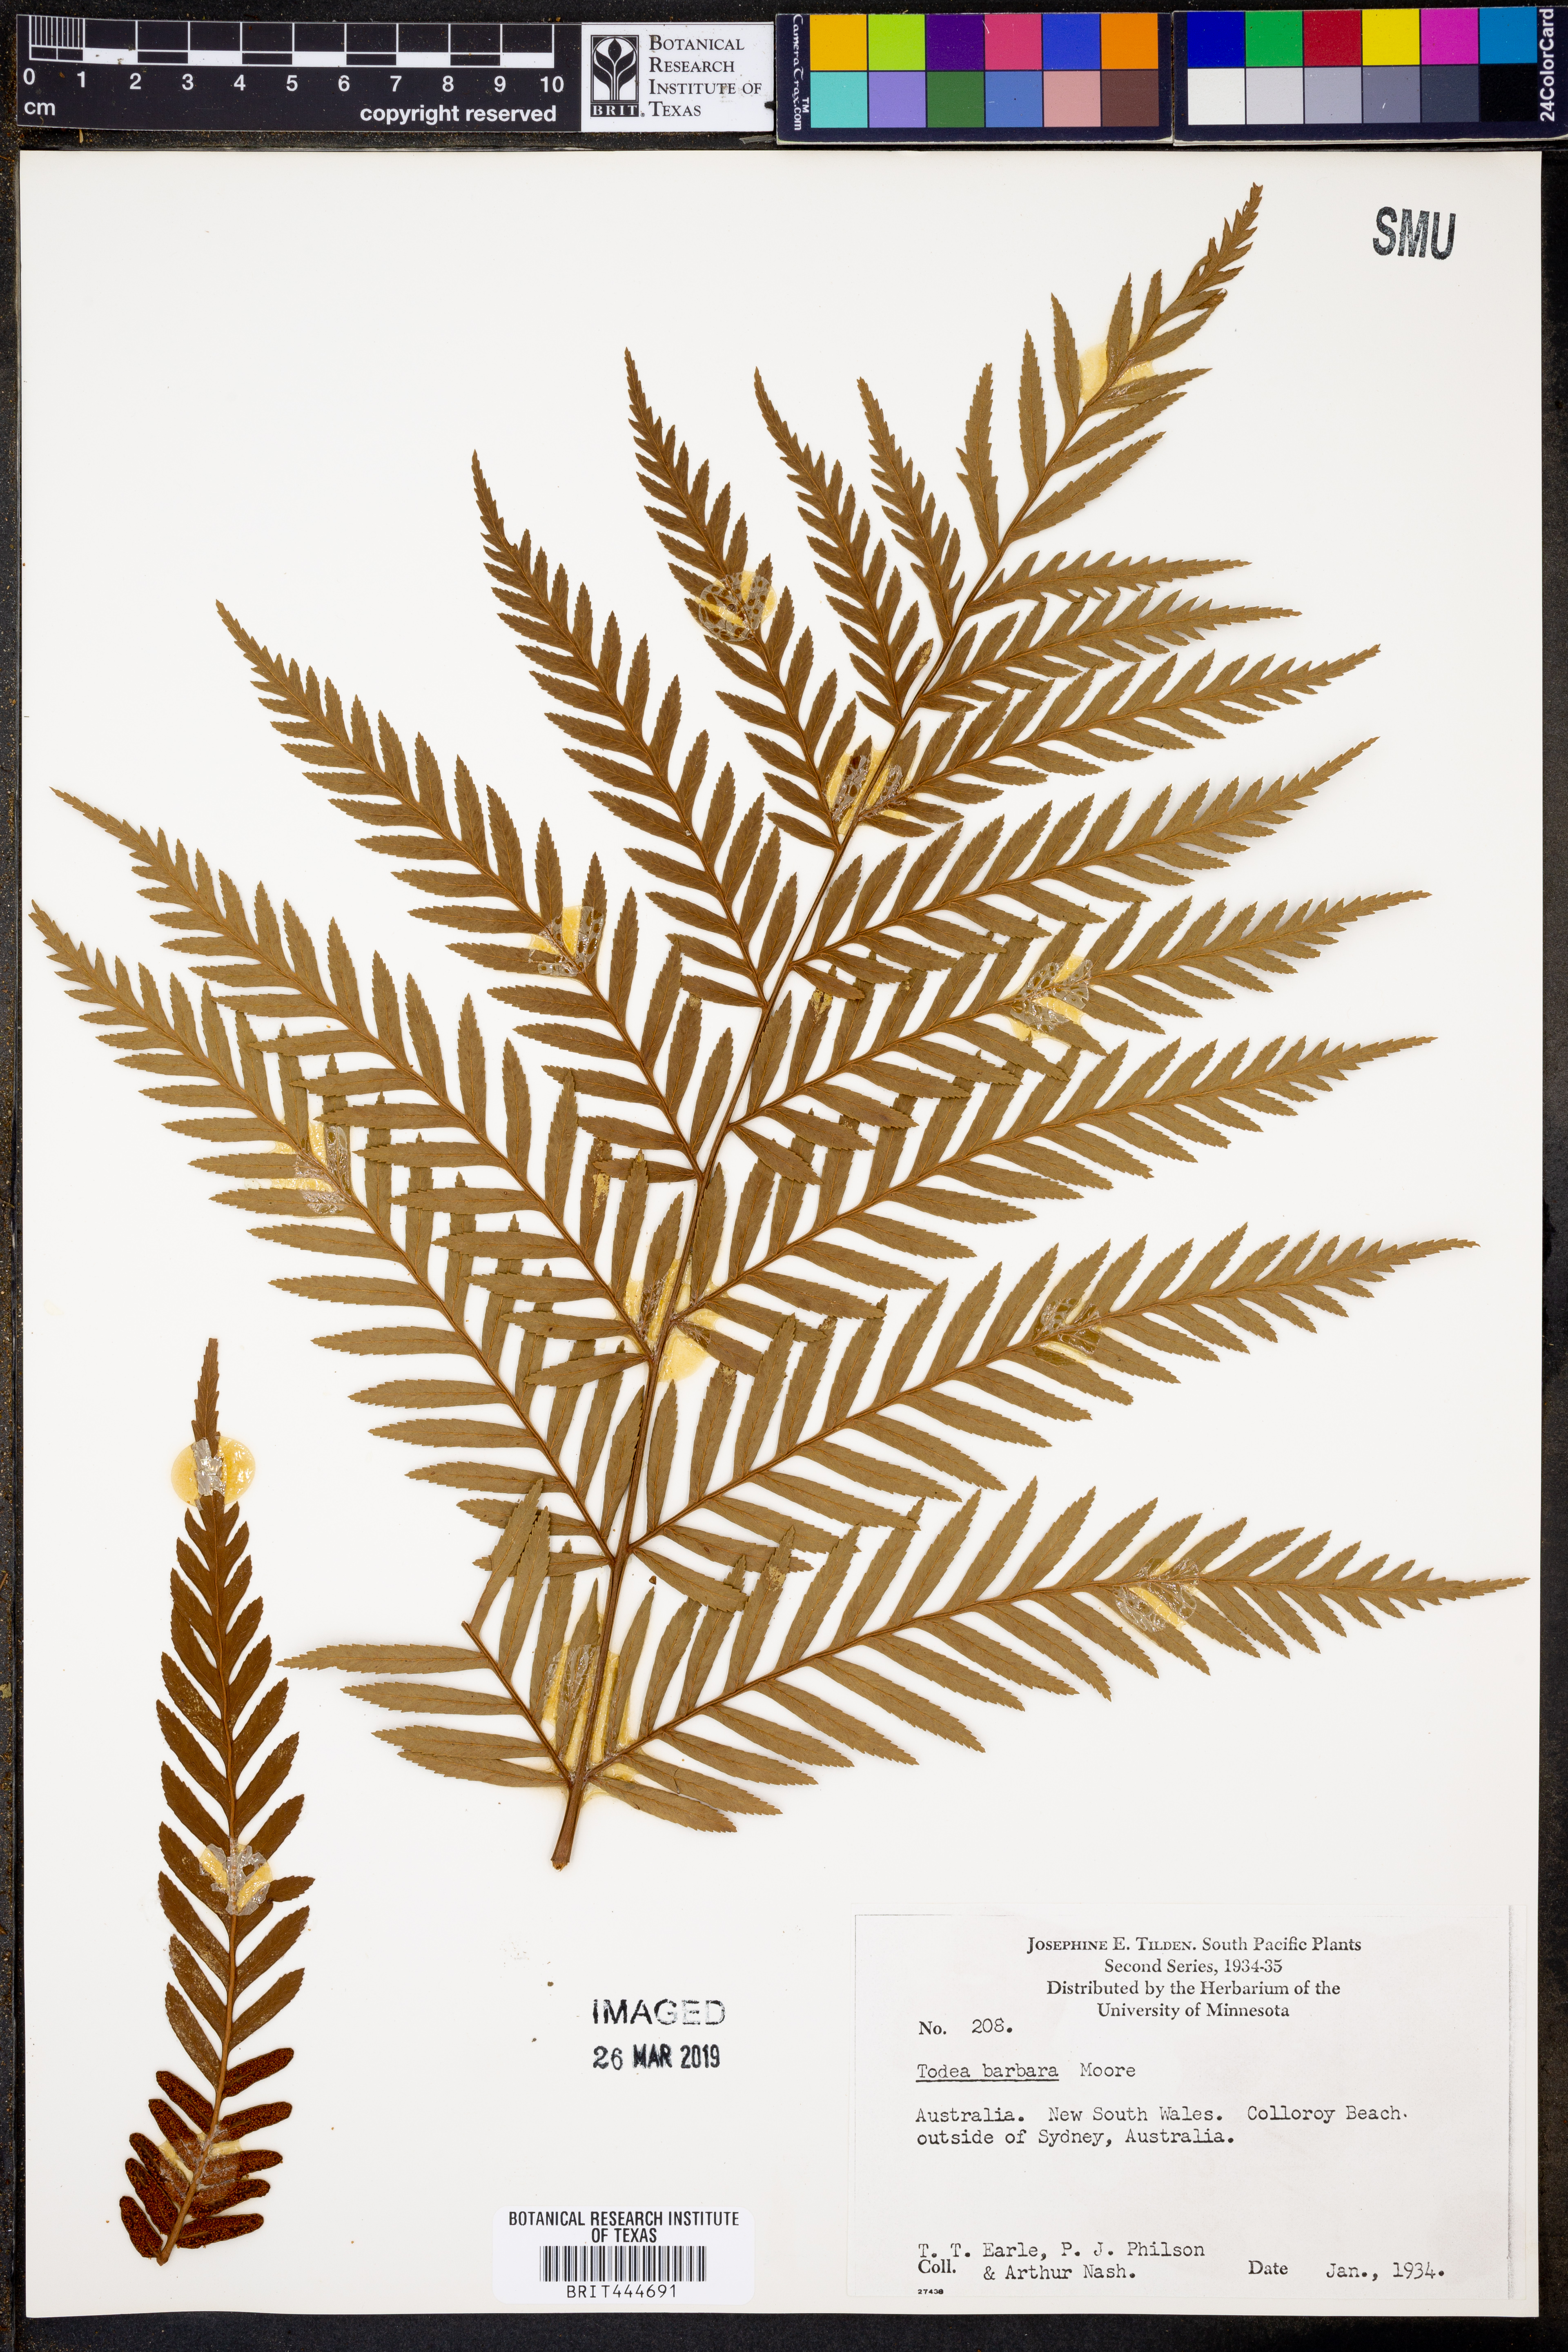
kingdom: Plantae
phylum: Tracheophyta
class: Polypodiopsida
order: Osmundales
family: Osmundaceae
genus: Todea
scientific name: Todea barbara
